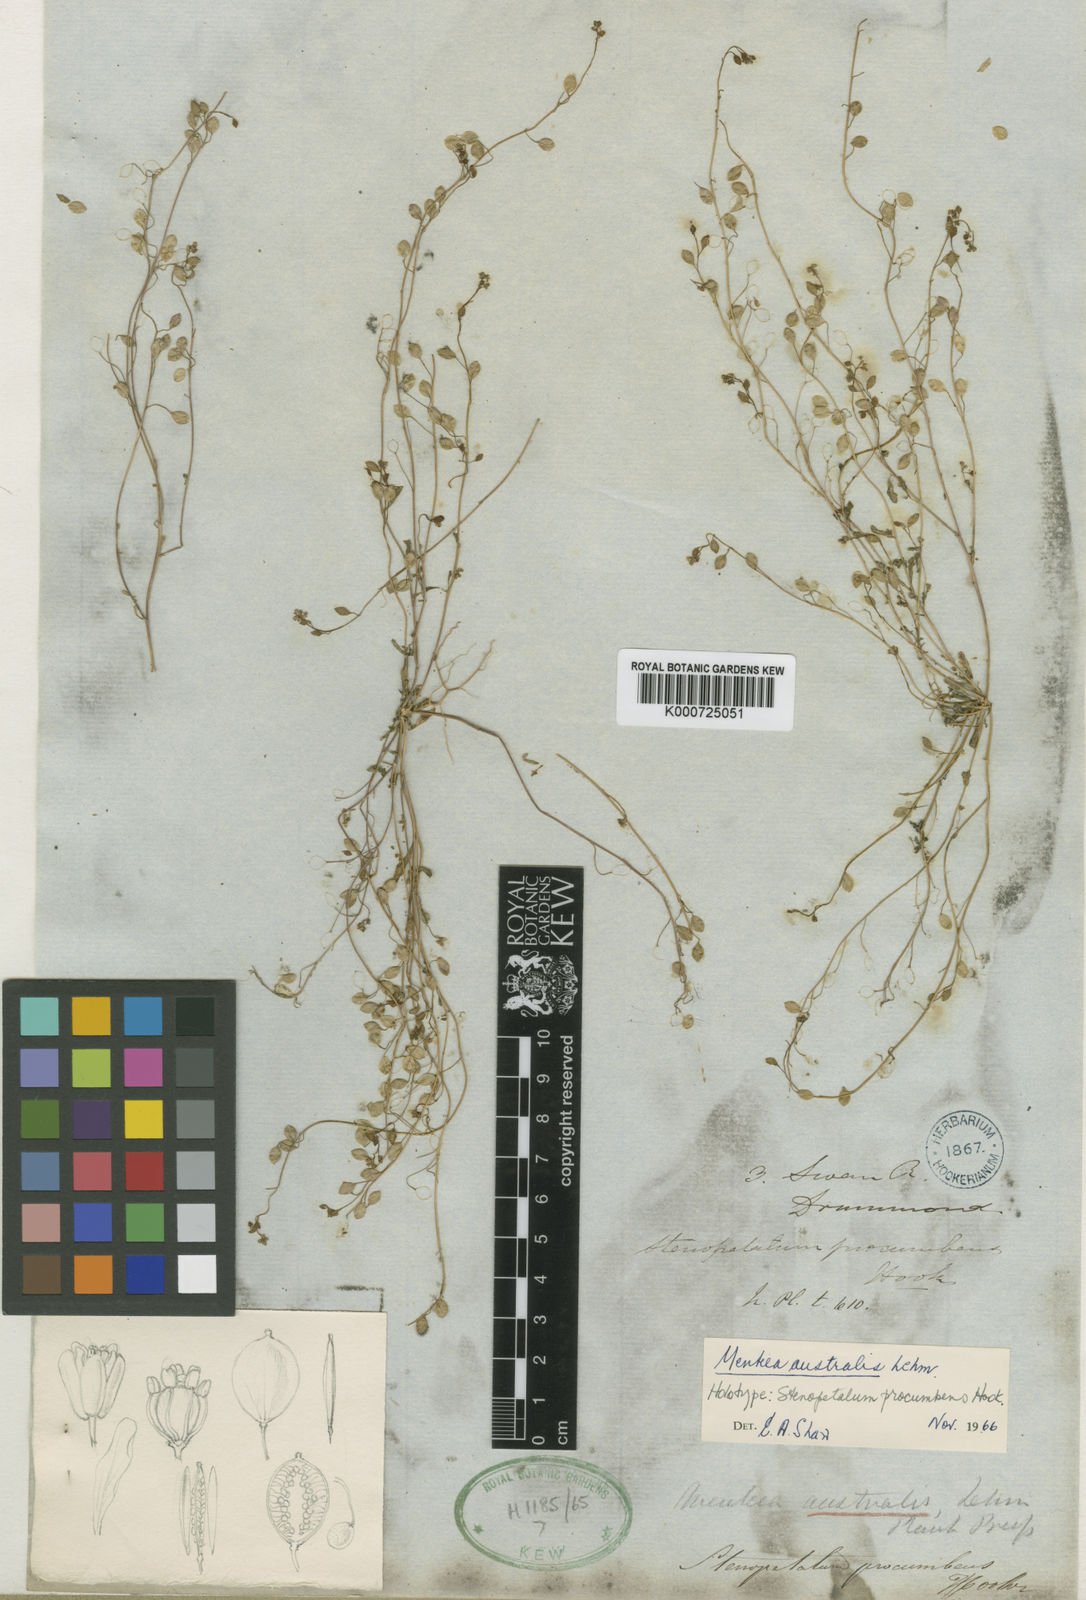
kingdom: Plantae
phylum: Tracheophyta
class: Magnoliopsida
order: Brassicales
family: Brassicaceae
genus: Menkea
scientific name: Menkea australis
